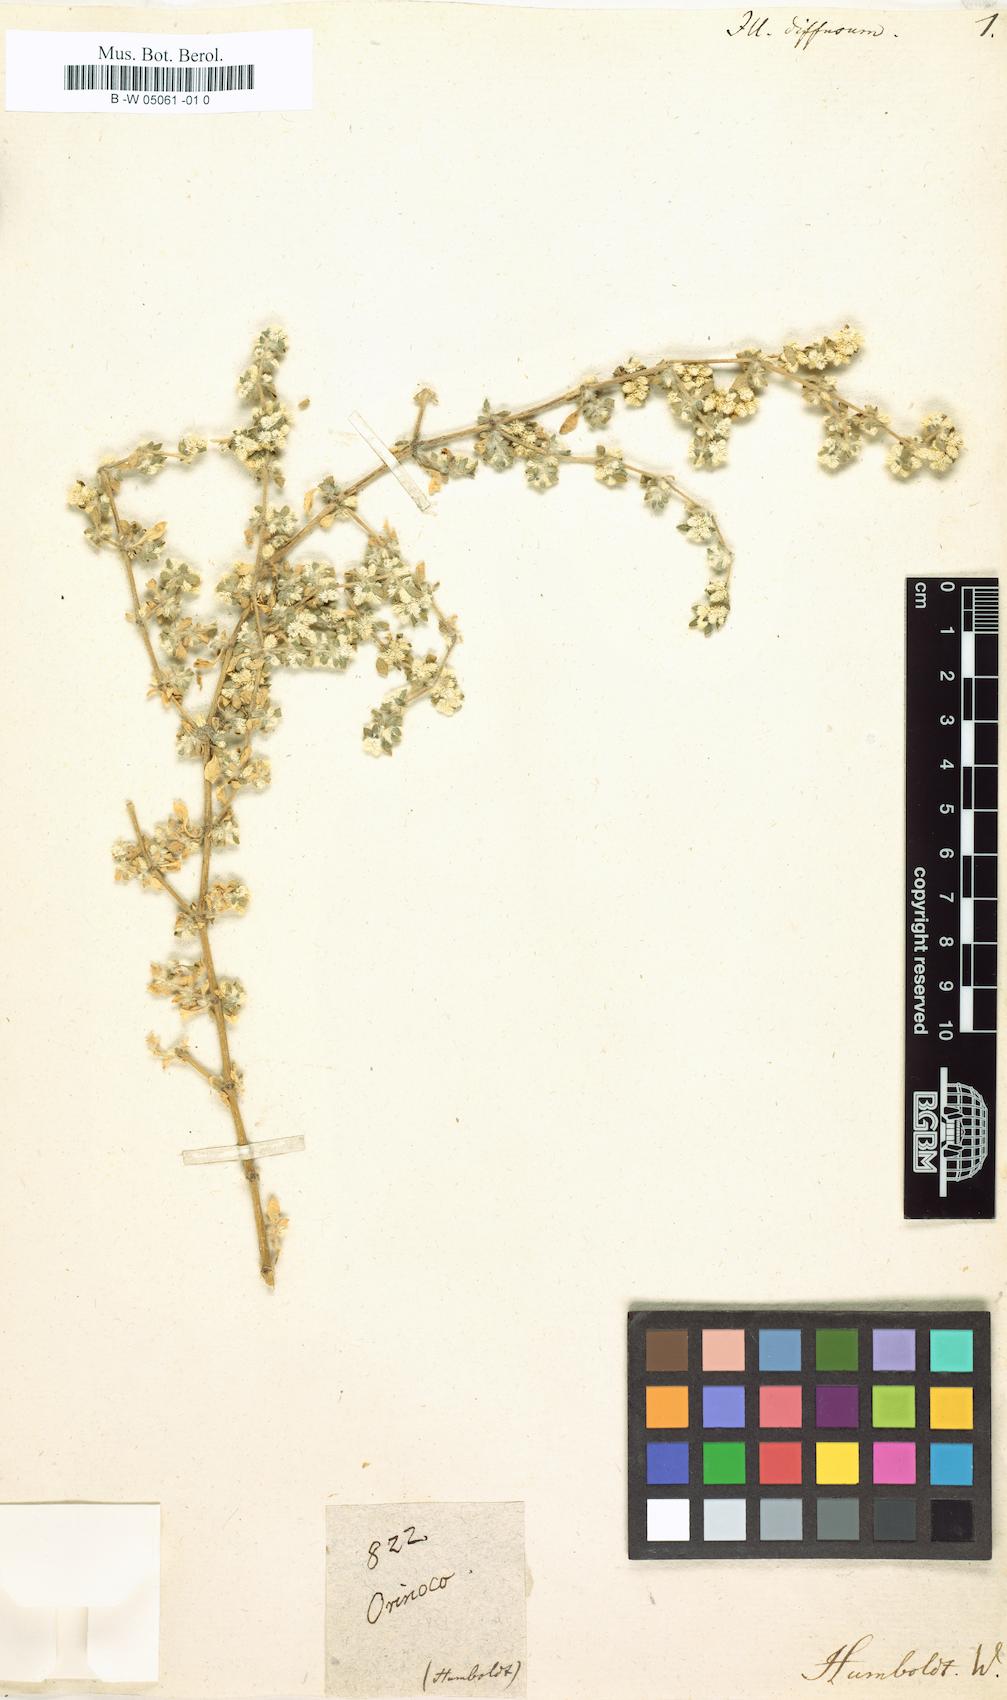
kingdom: Plantae
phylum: Tracheophyta
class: Magnoliopsida
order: Caryophyllales
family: Amaranthaceae
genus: Alternanthera
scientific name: Alternanthera pulchella
